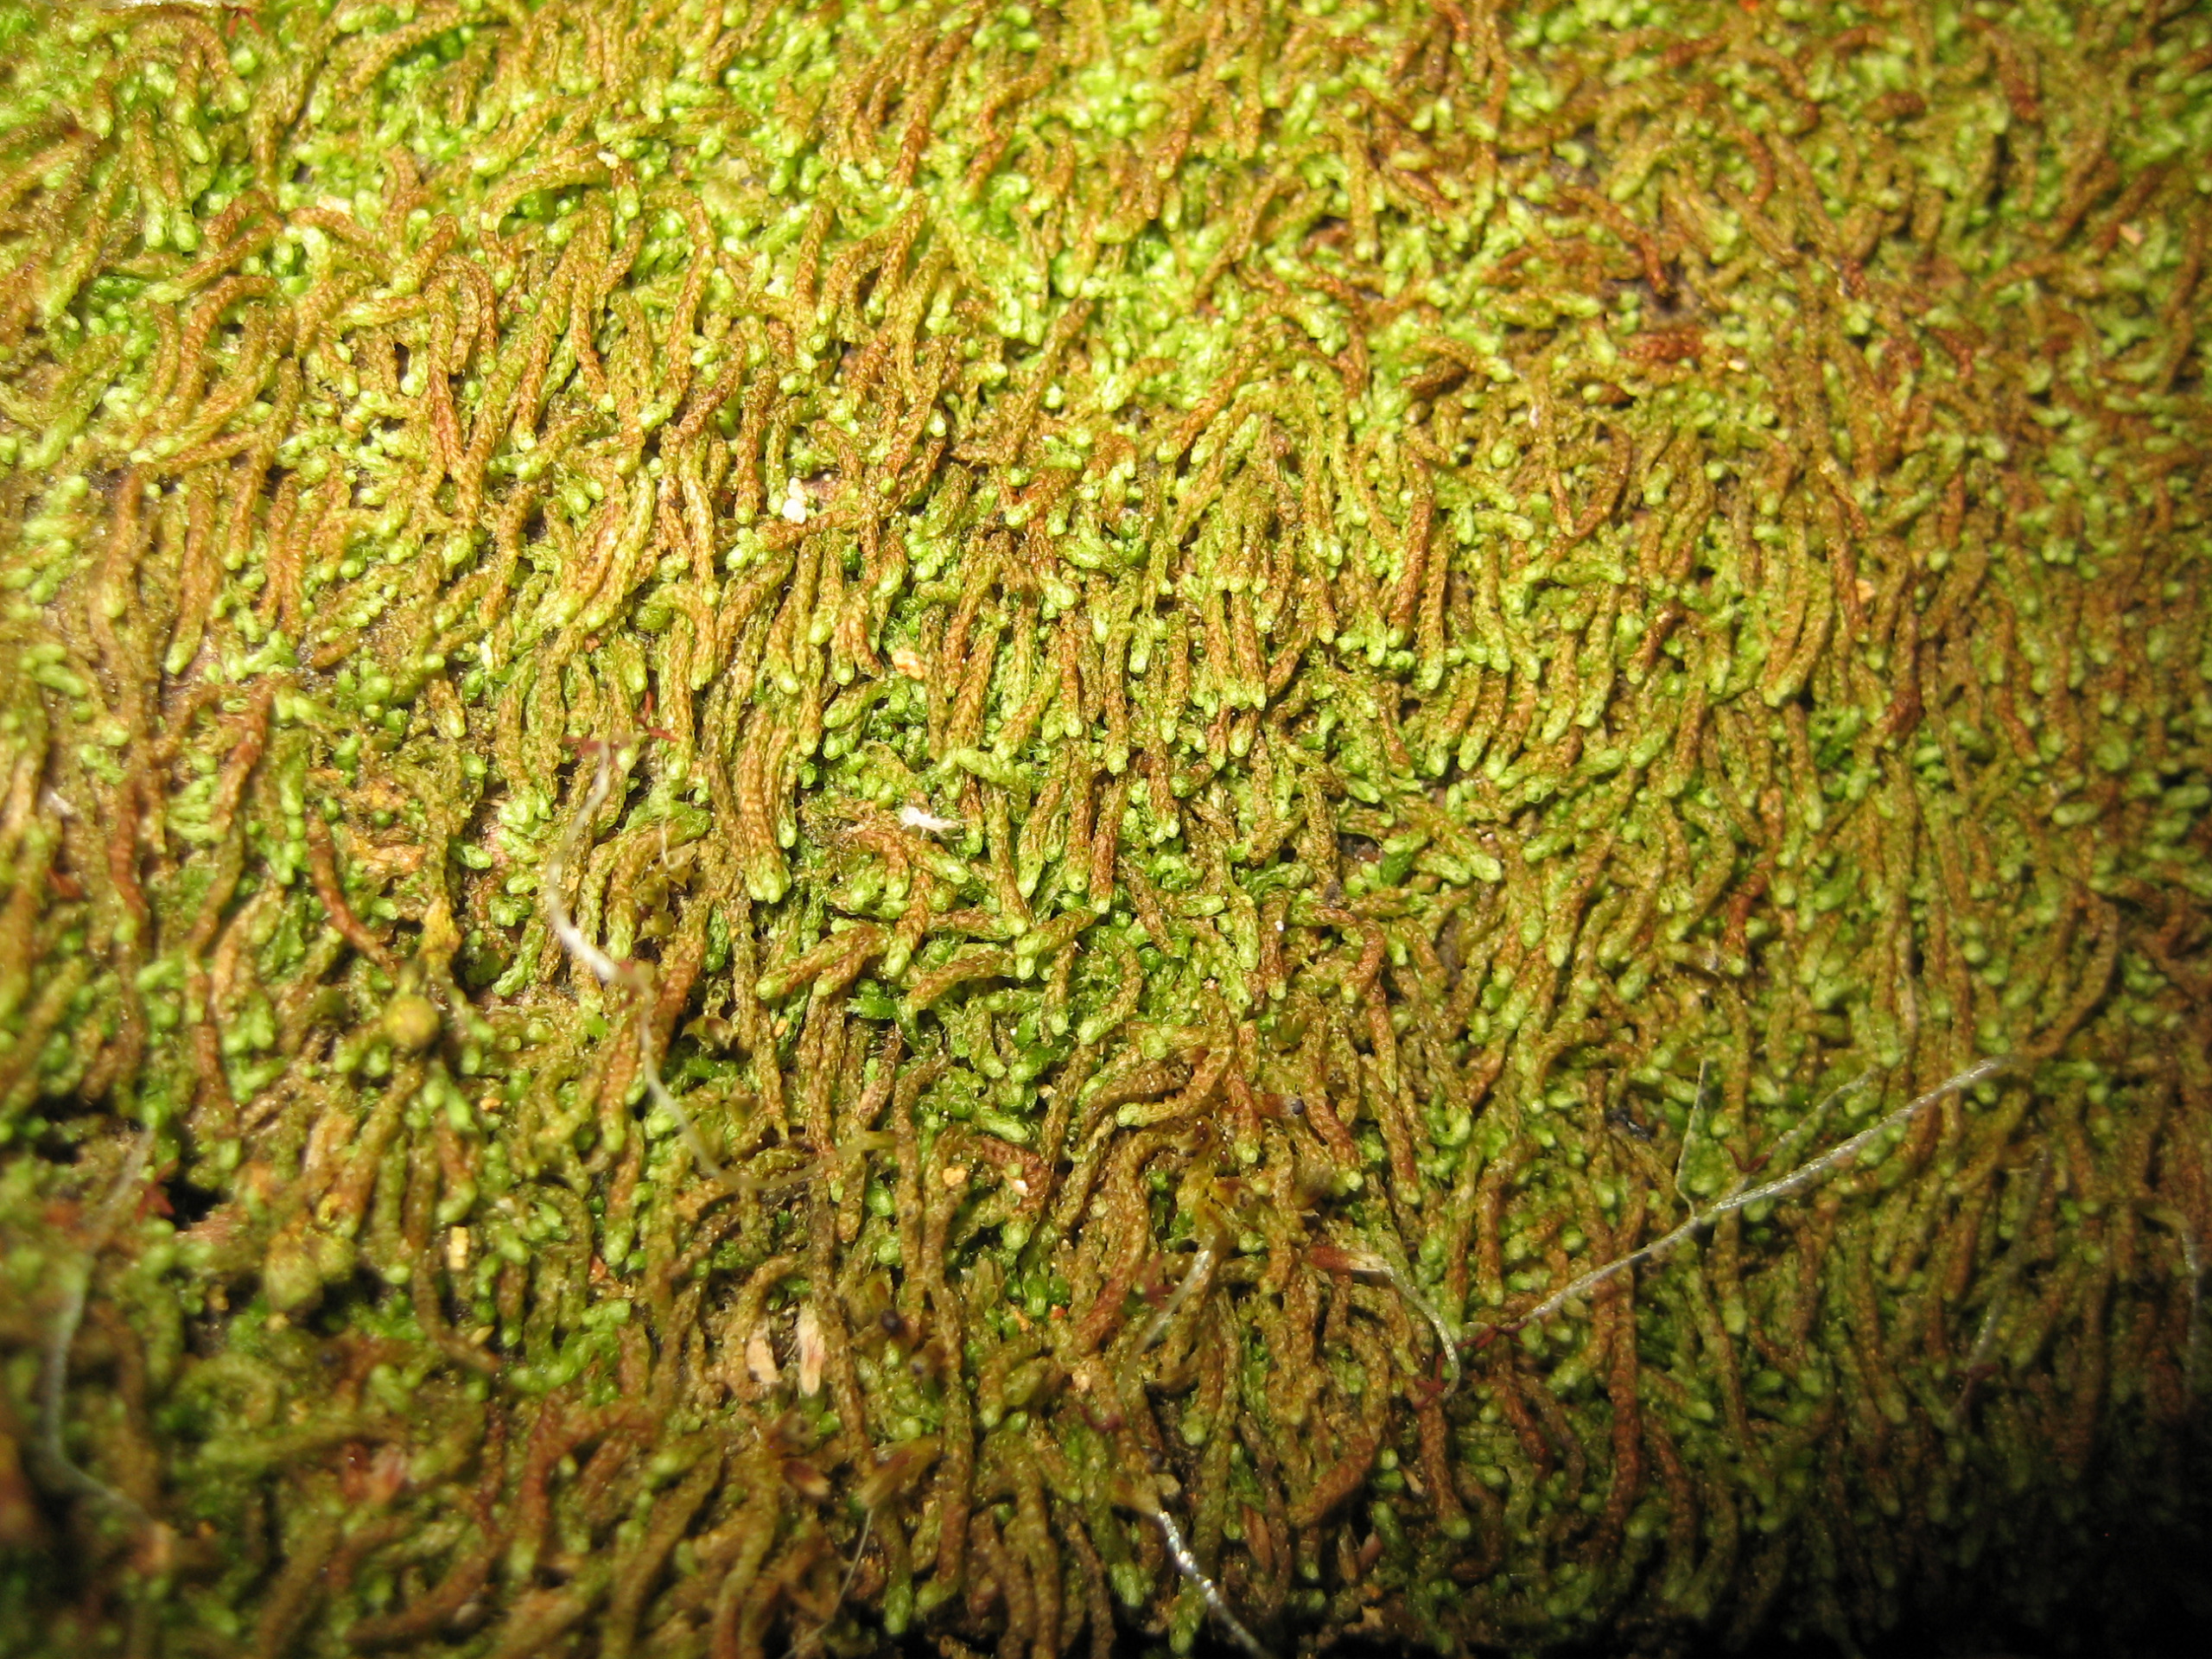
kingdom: Plantae
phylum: Marchantiophyta
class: Jungermanniopsida
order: Jungermanniales
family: Cephaloziaceae
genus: Nowellia
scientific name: Nowellia curvifolia
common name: Krumbladet stødmos
